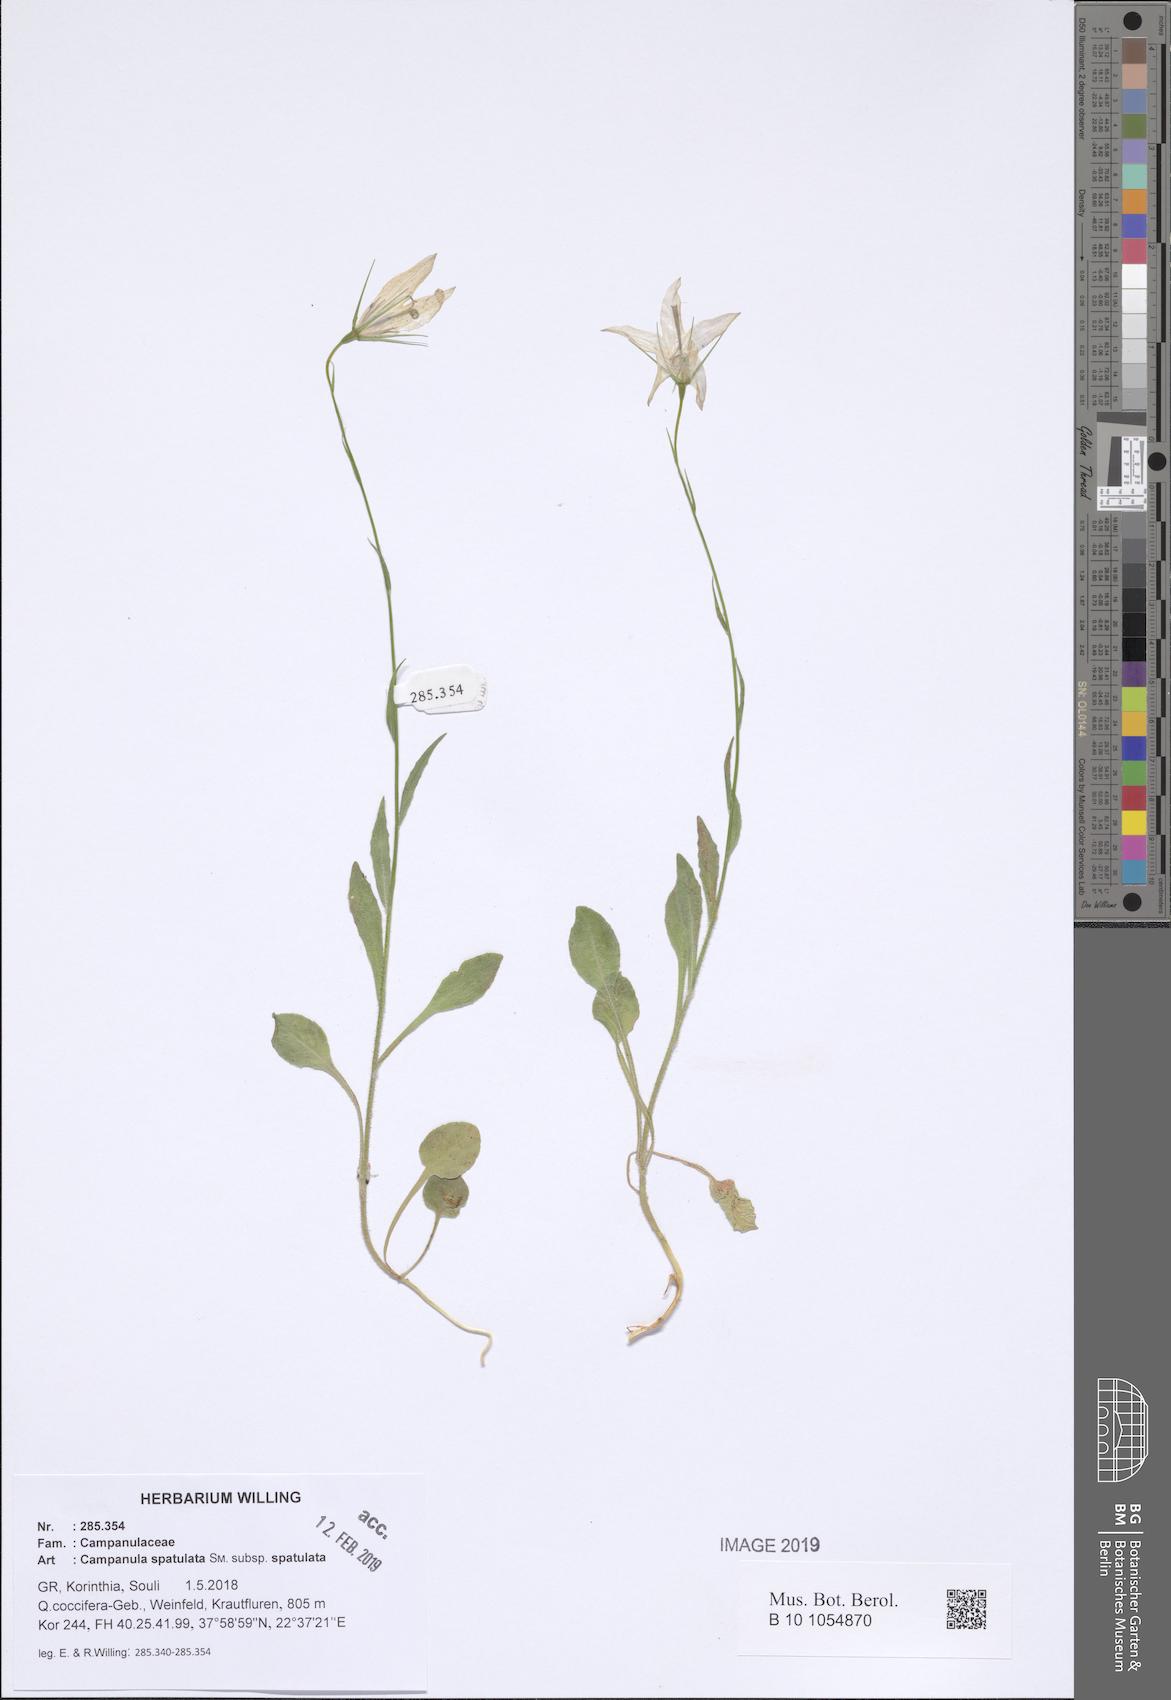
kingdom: Plantae
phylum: Tracheophyta
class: Magnoliopsida
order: Asterales
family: Campanulaceae
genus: Campanula
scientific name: Campanula spatulata
